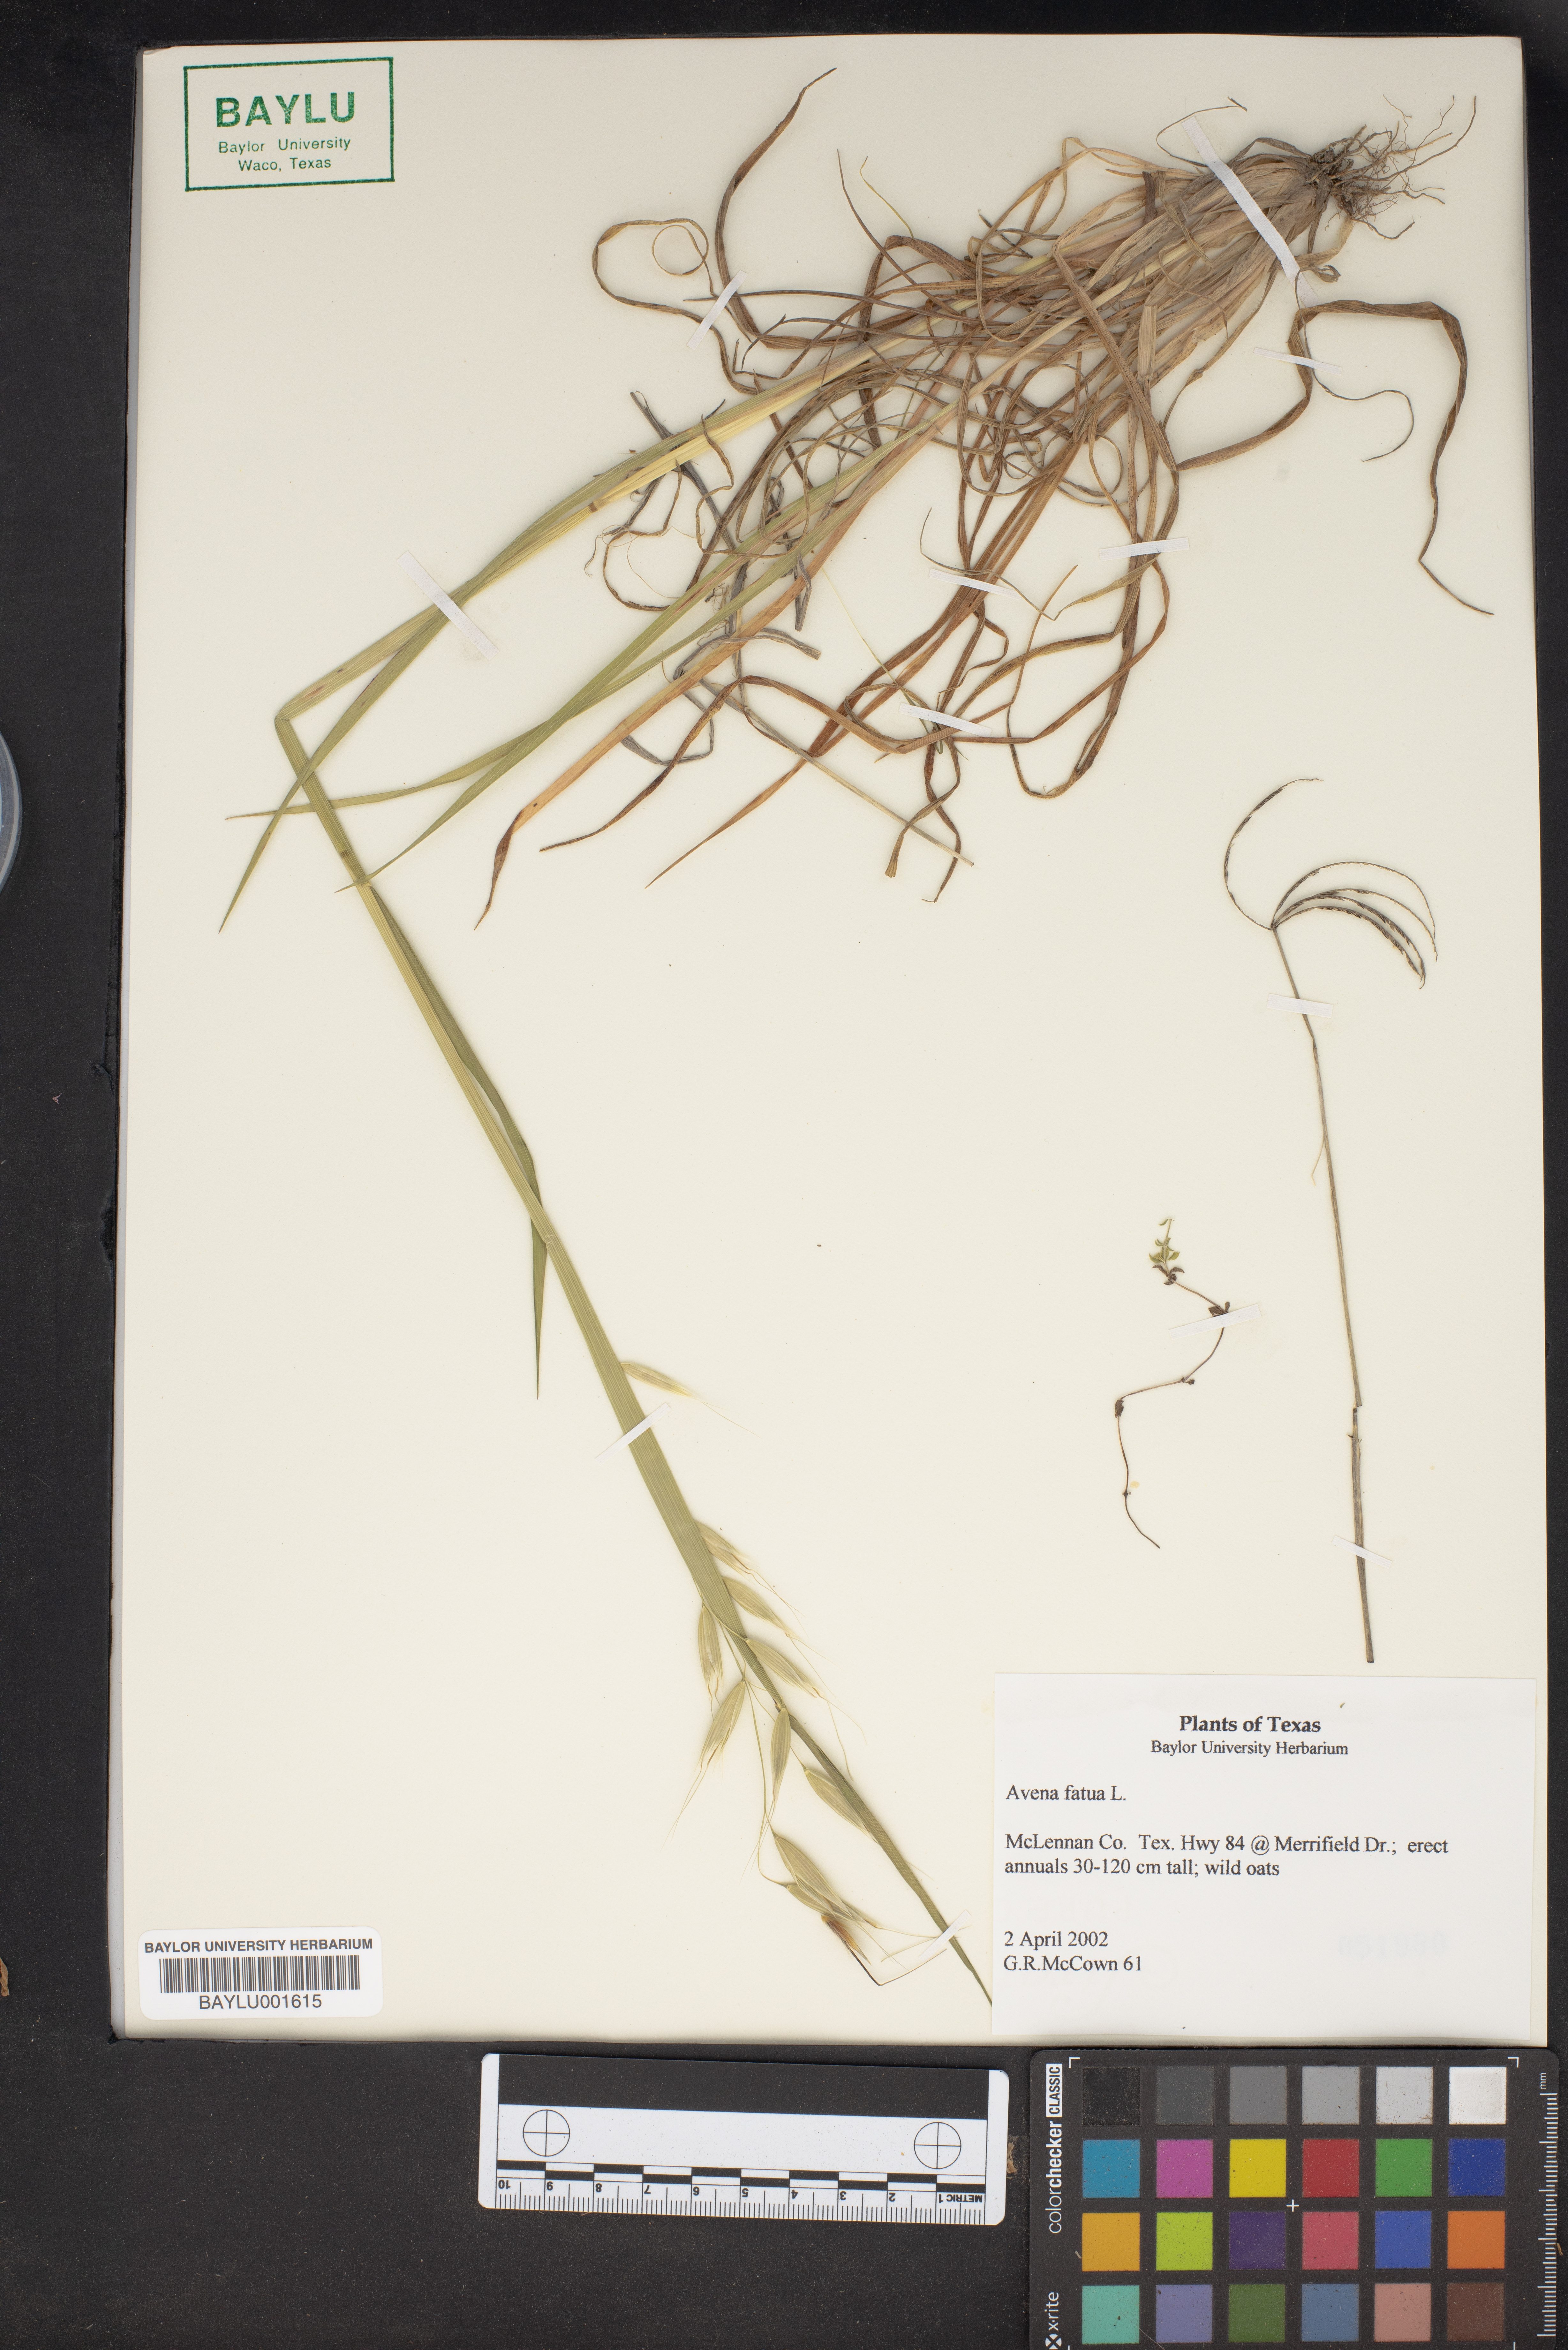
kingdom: Plantae
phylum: Tracheophyta
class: Liliopsida
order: Poales
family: Poaceae
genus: Avena
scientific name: Avena fatua
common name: Wild oat
